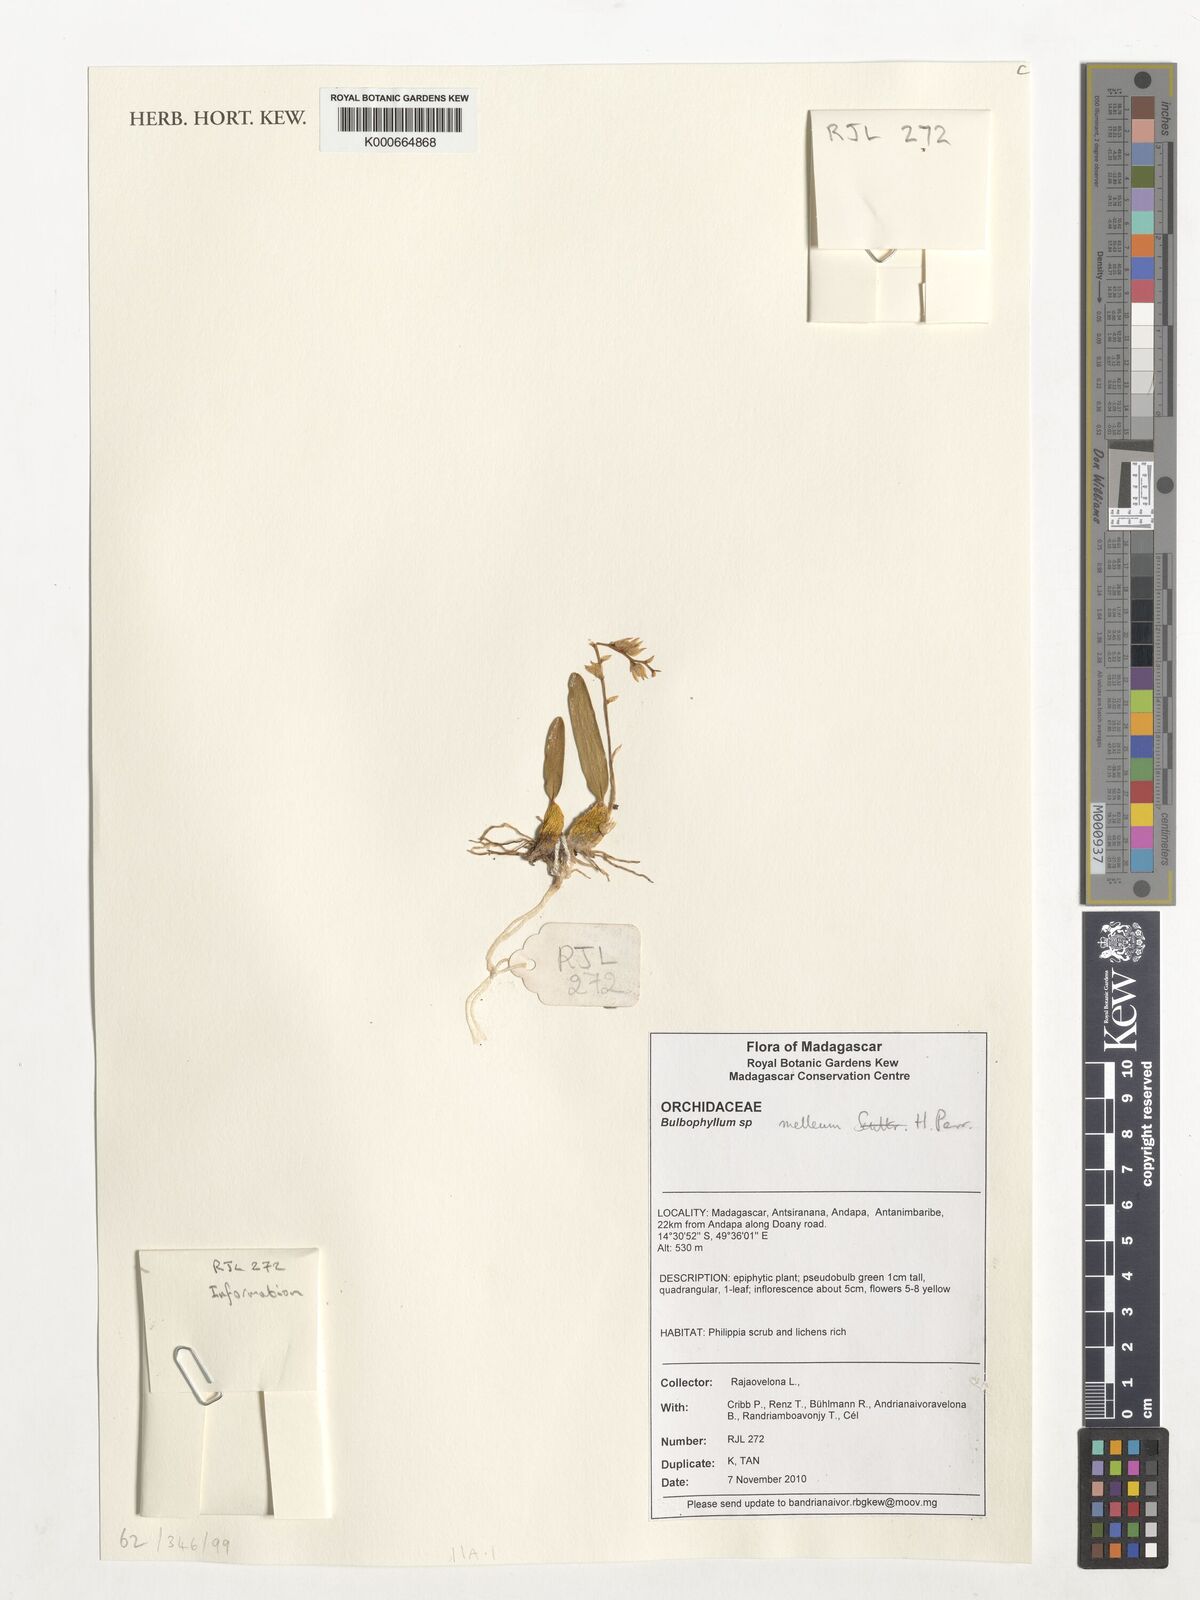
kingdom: Plantae
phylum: Tracheophyta
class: Liliopsida
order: Asparagales
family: Orchidaceae
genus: Bulbophyllum
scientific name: Bulbophyllum melleum
